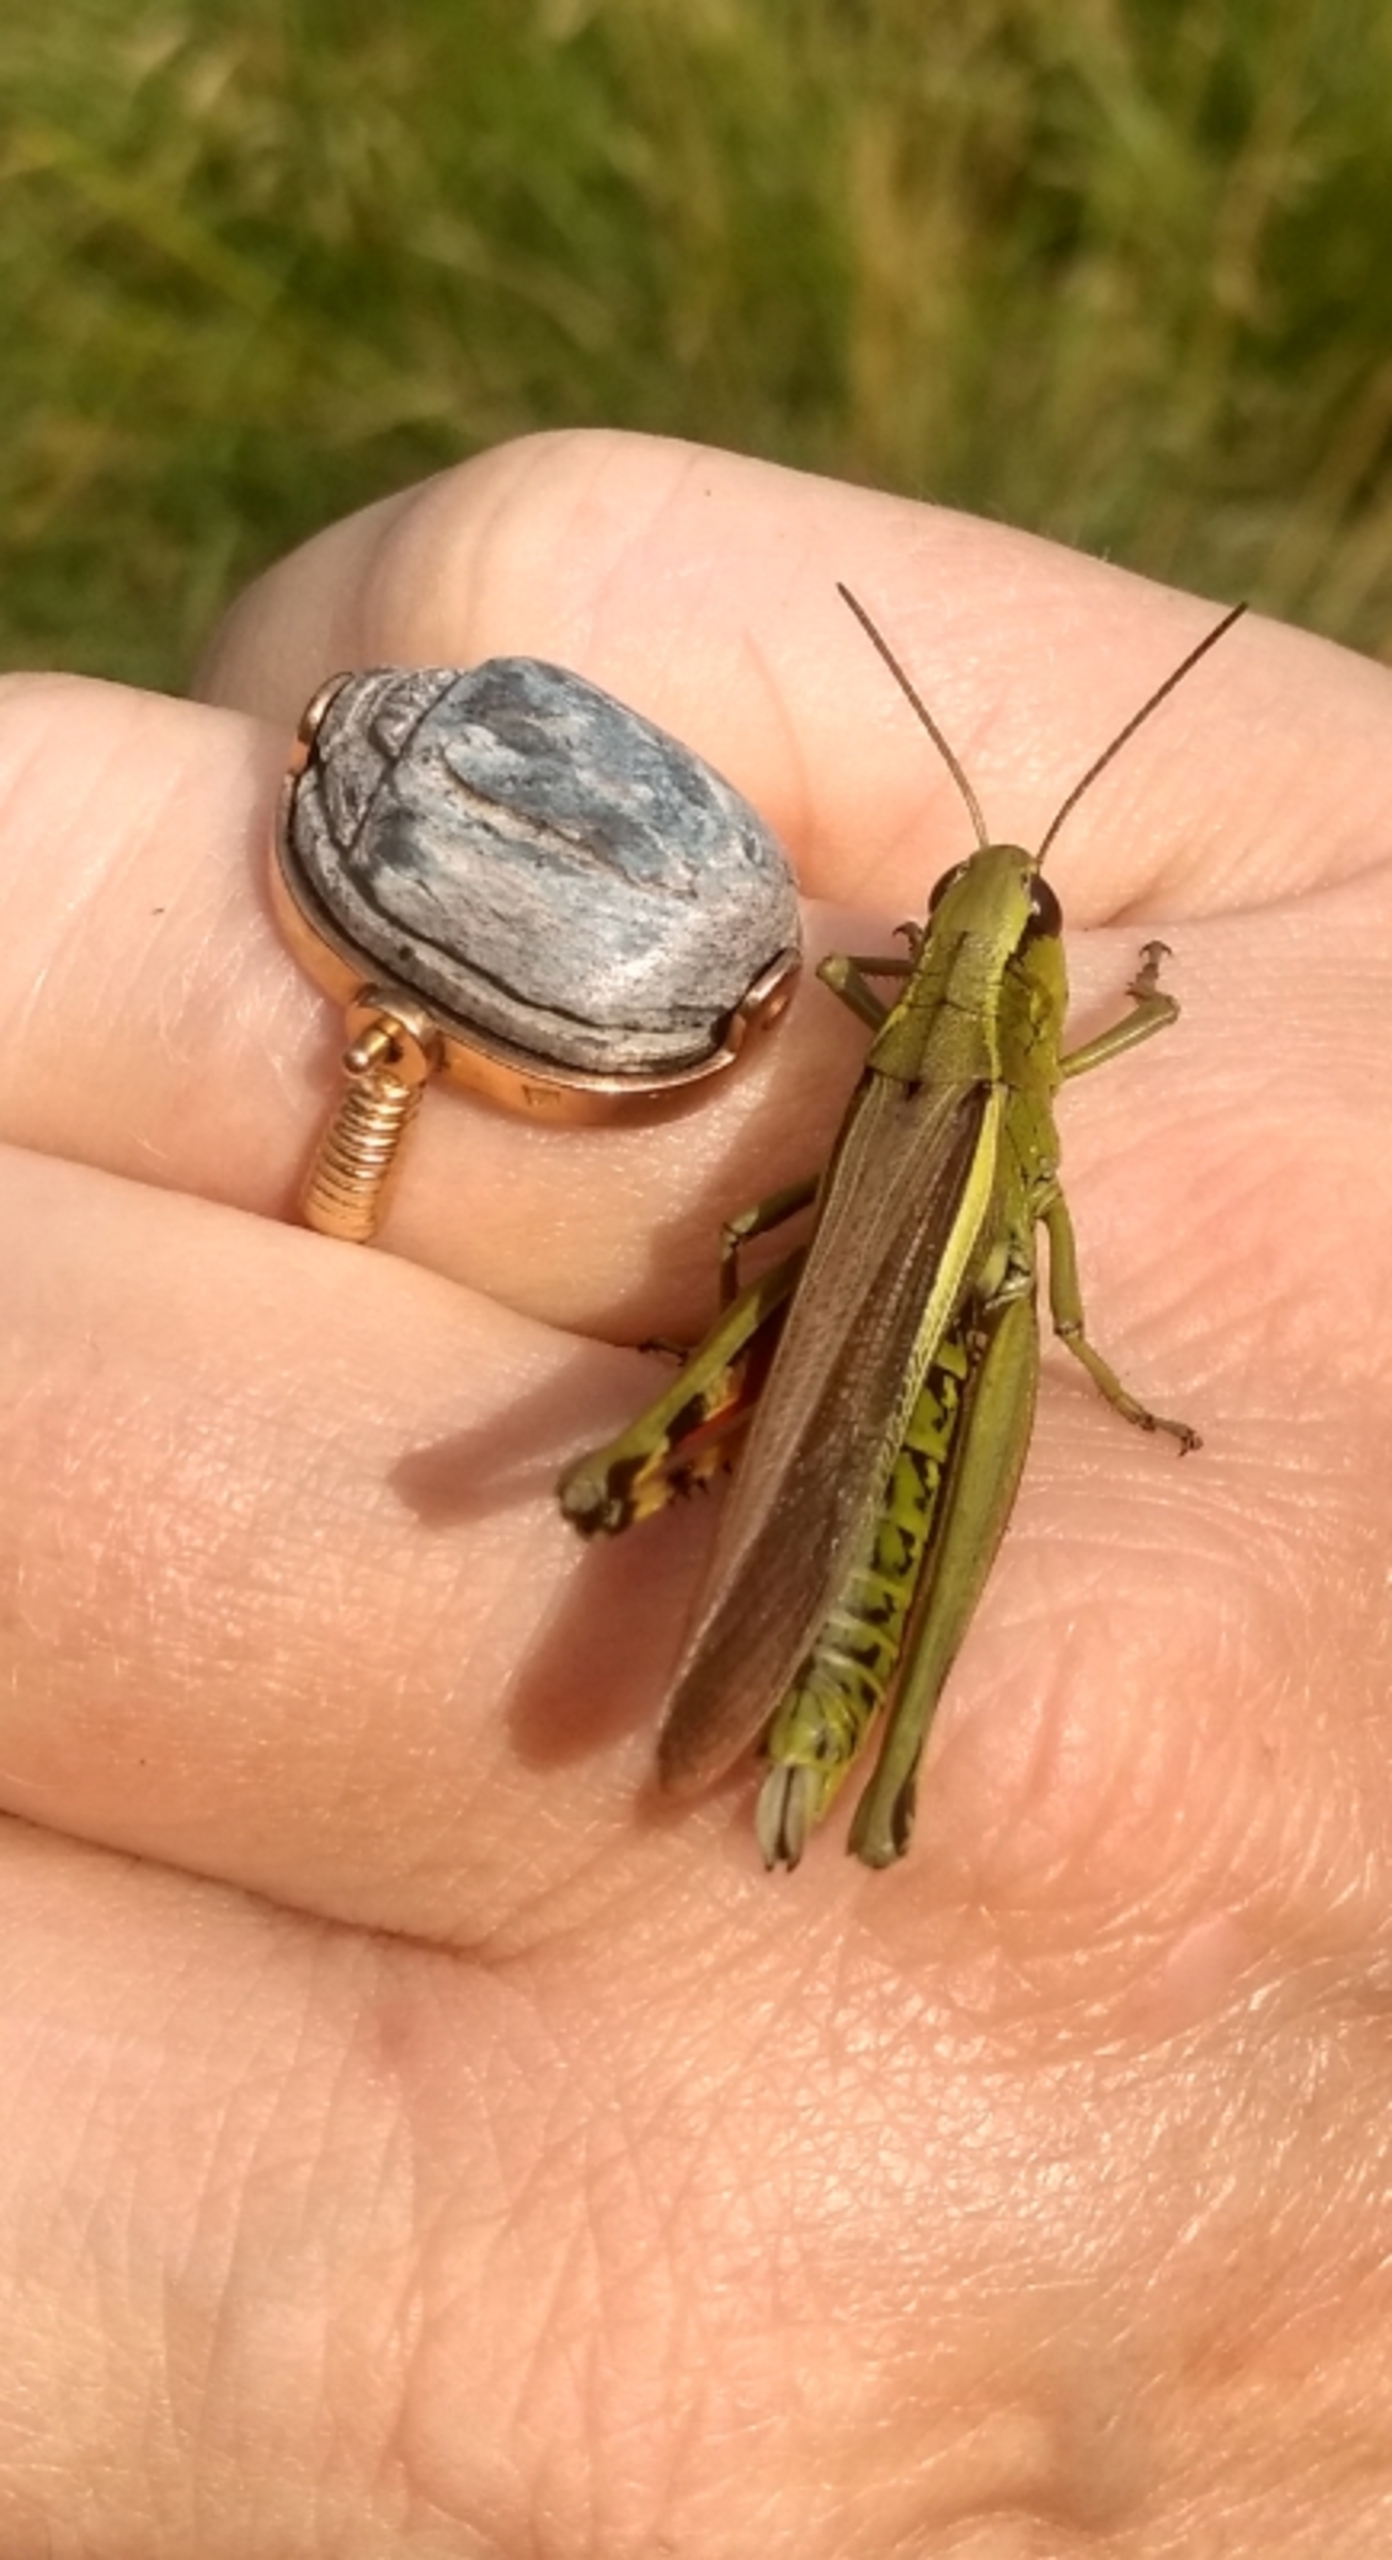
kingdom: Animalia
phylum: Arthropoda
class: Insecta
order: Orthoptera
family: Acrididae
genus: Stethophyma
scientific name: Stethophyma grossum
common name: Sumpgræshoppe
